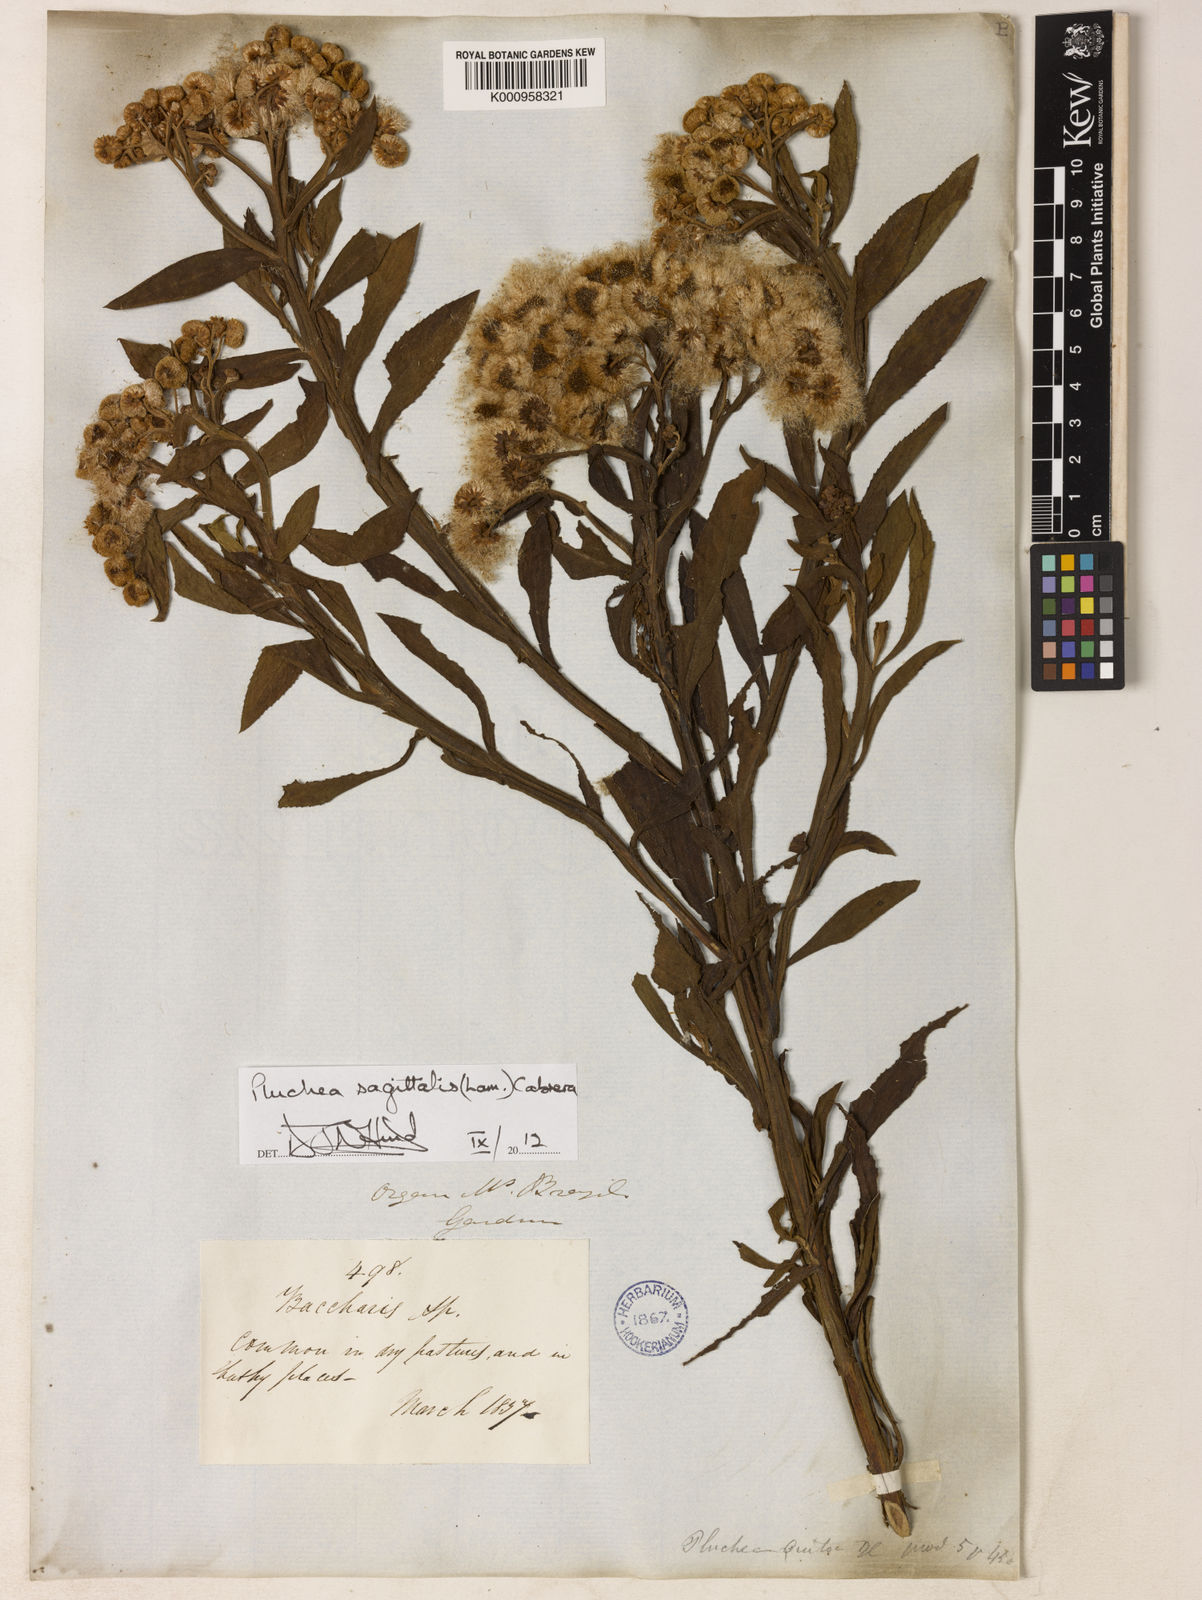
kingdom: Plantae
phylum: Tracheophyta
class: Magnoliopsida
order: Asterales
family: Asteraceae
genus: Pluchea
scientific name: Pluchea sagittalis
